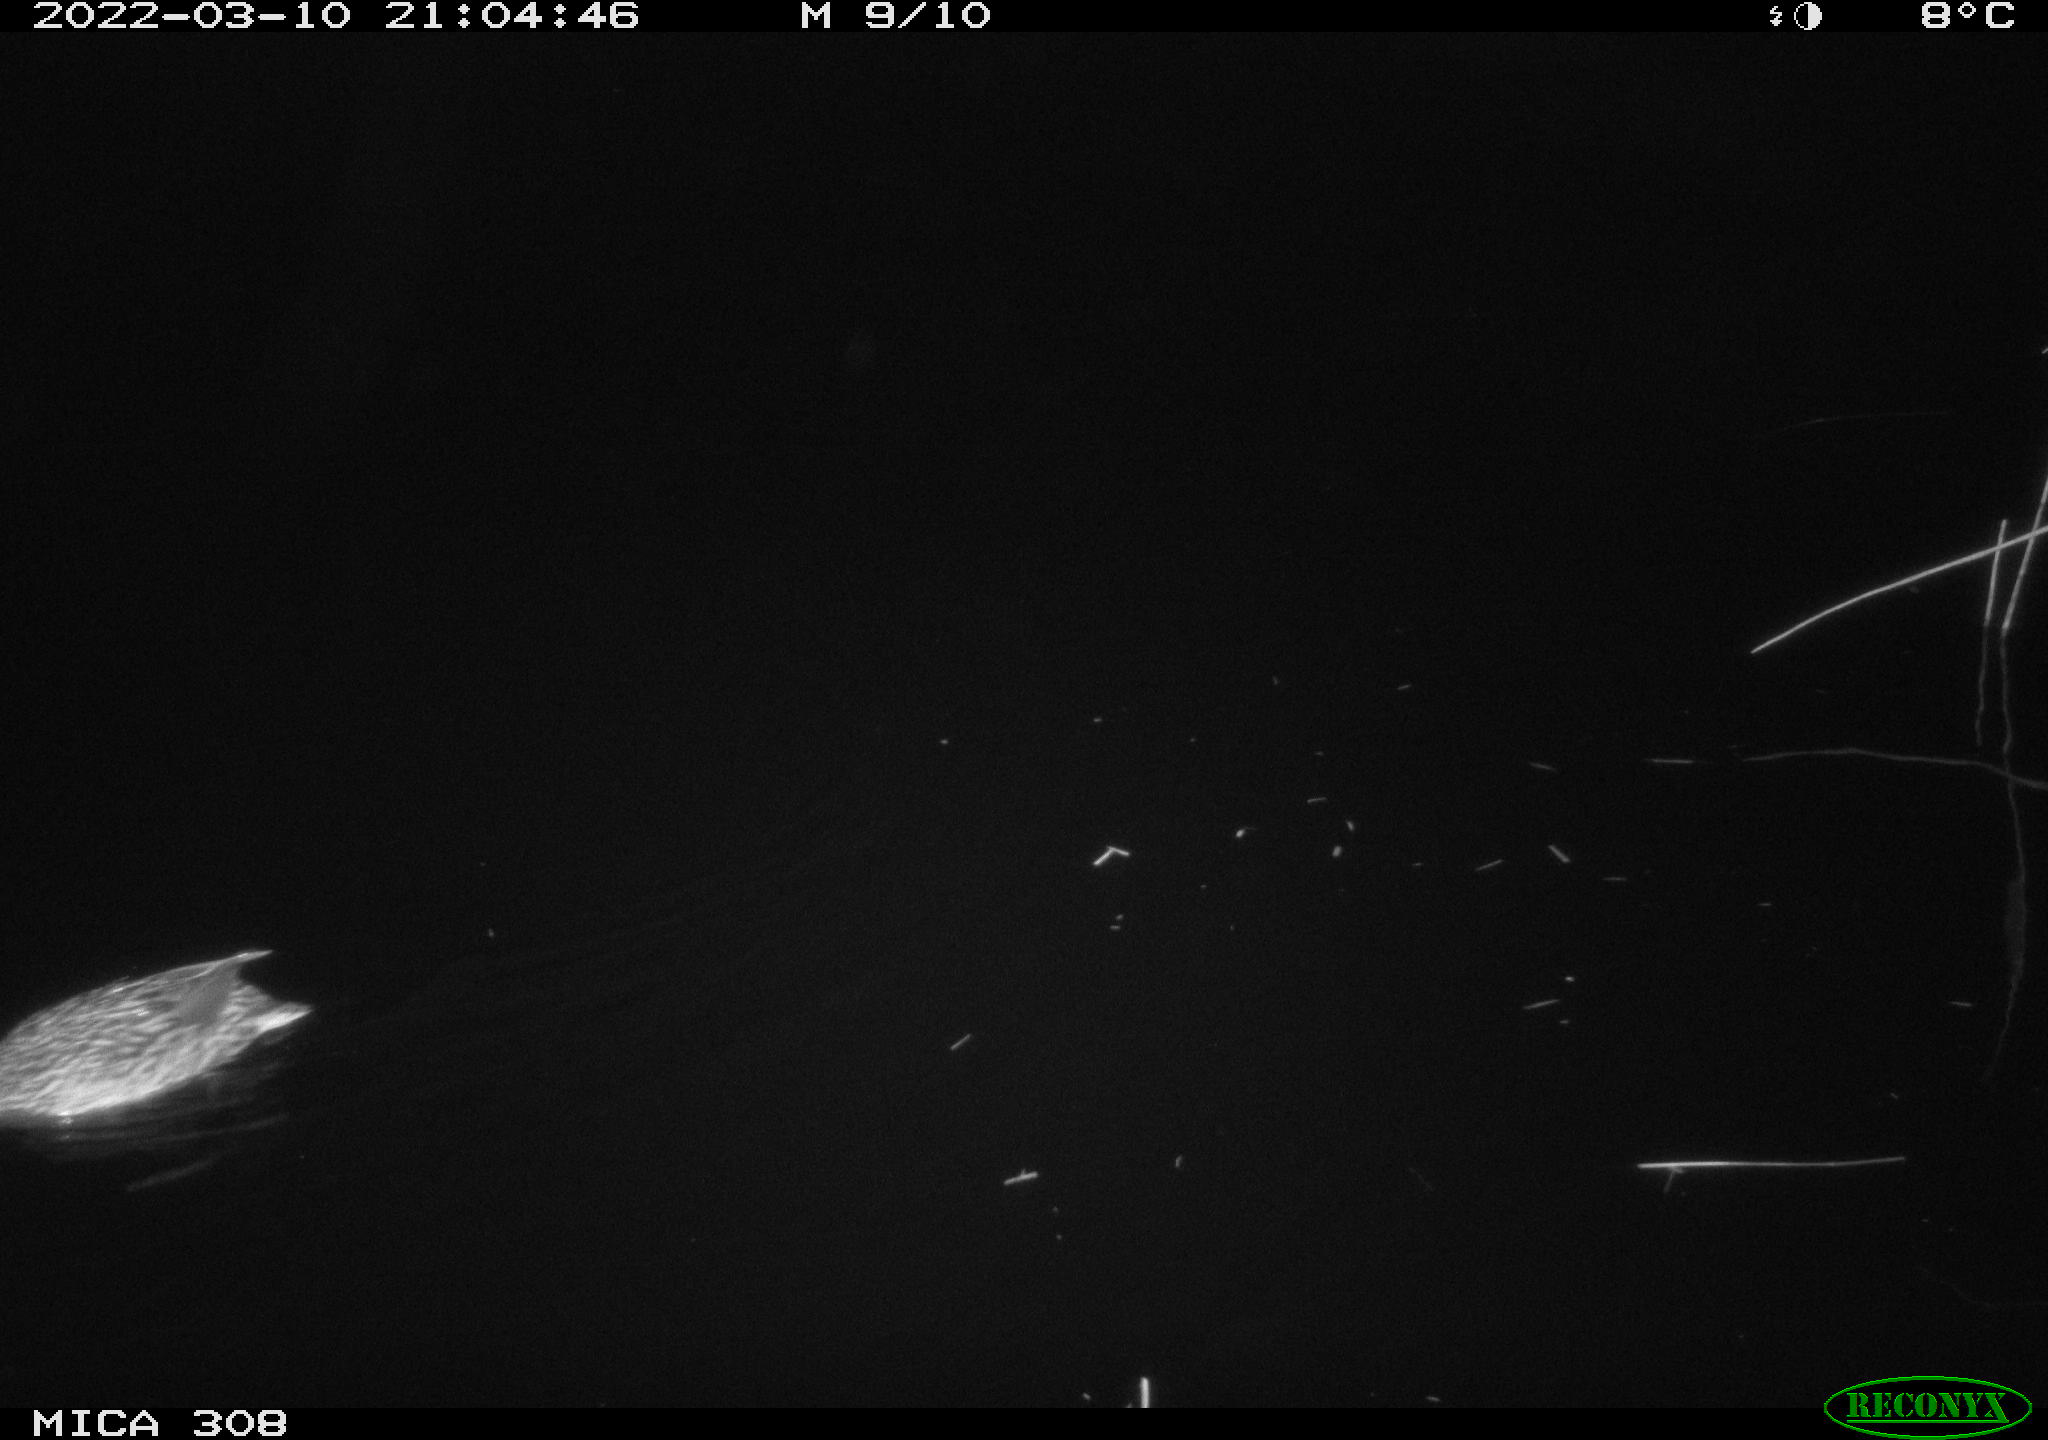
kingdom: Animalia
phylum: Chordata
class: Aves
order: Anseriformes
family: Anatidae
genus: Anas
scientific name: Anas platyrhynchos
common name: Mallard
